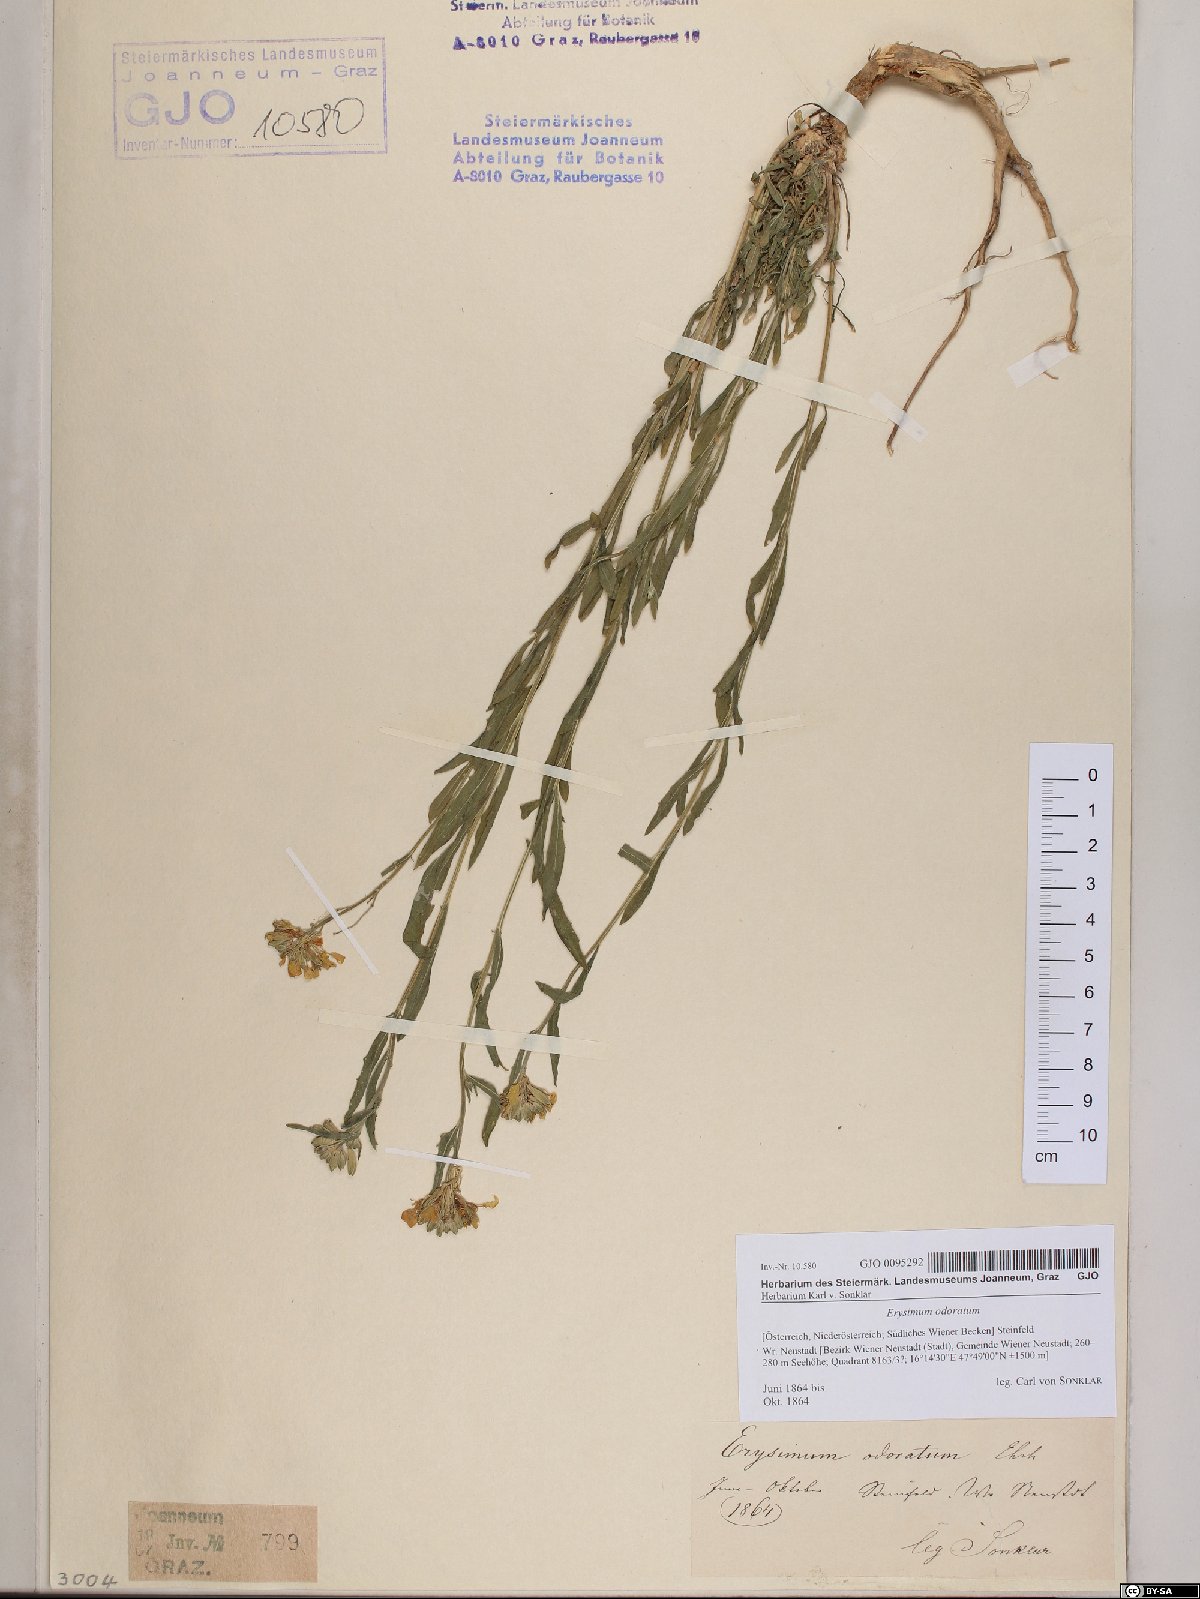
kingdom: Plantae
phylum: Tracheophyta
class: Magnoliopsida
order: Brassicales
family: Brassicaceae
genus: Erysimum
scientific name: Erysimum odoratum
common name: Smelly wallflower
